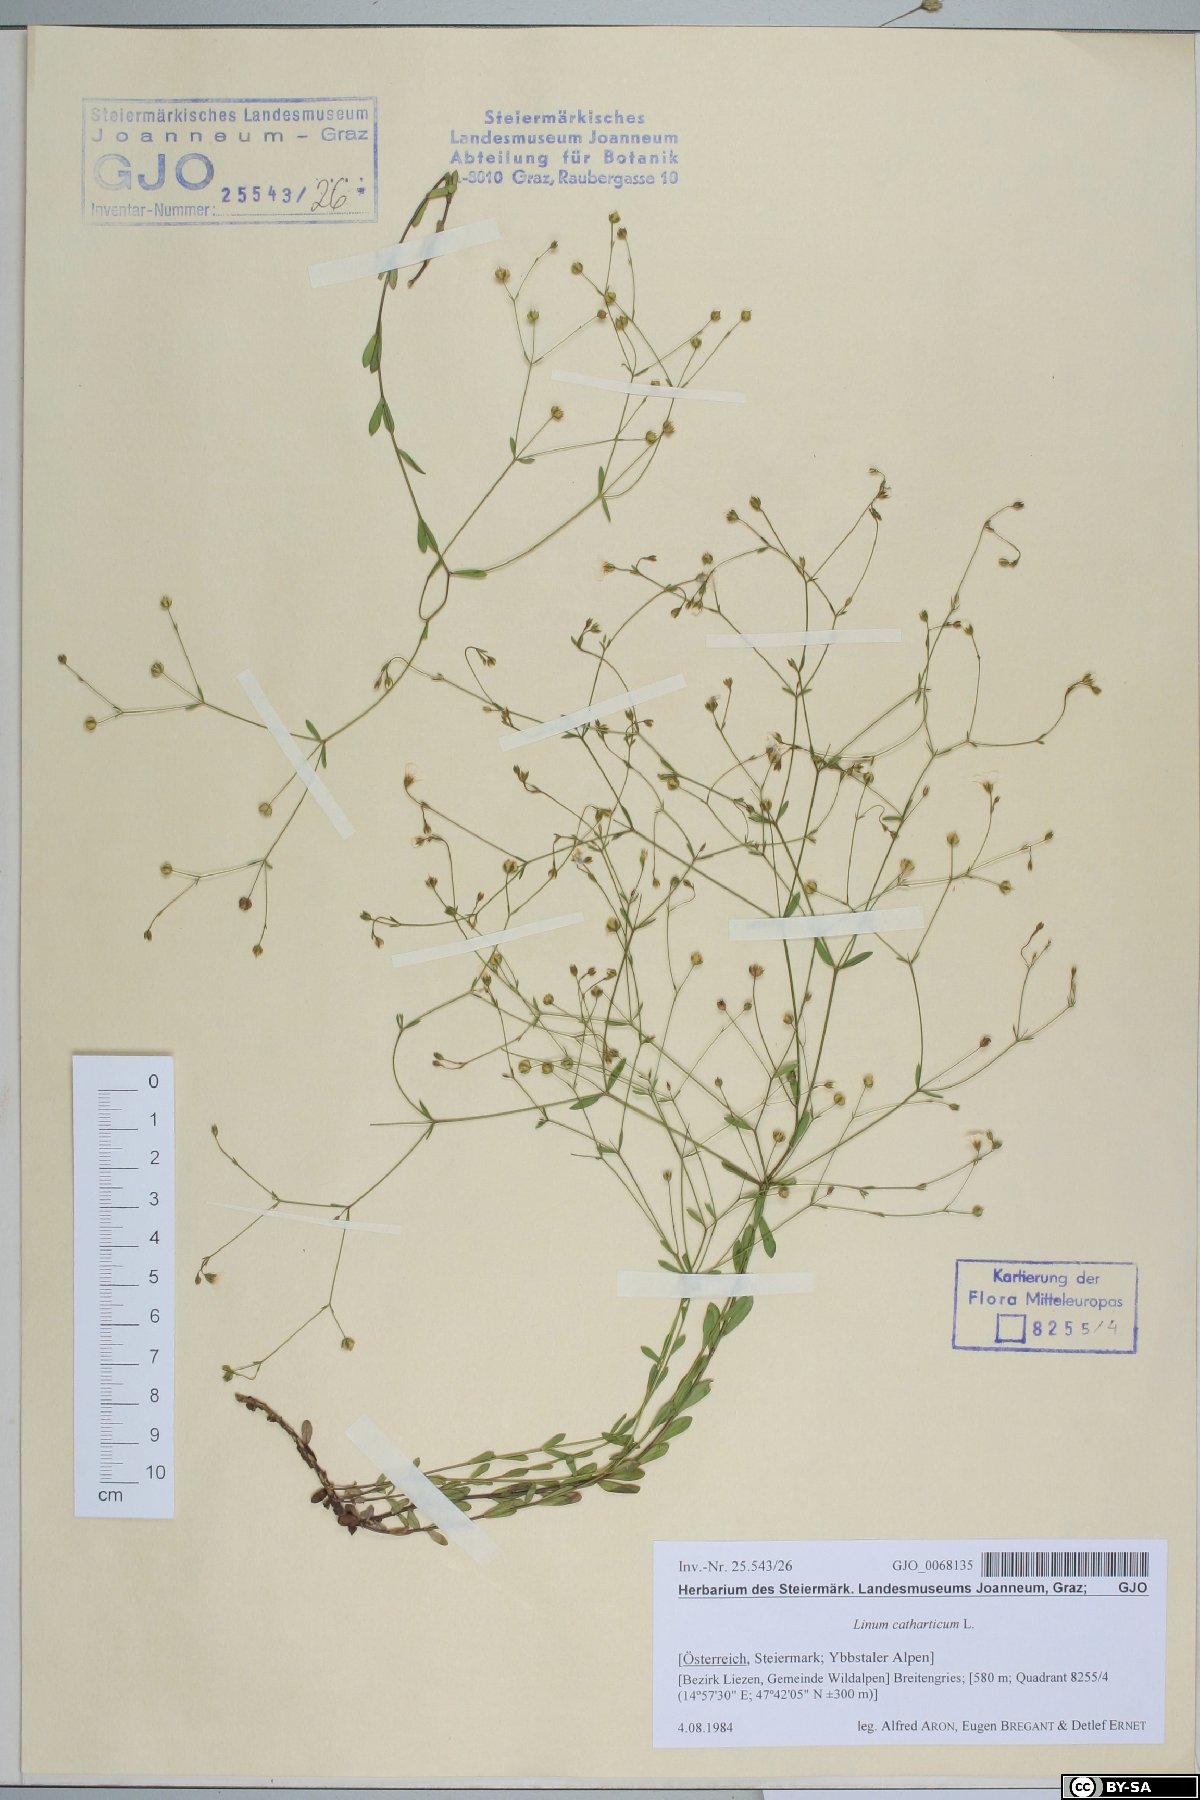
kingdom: Plantae
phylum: Tracheophyta
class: Magnoliopsida
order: Malpighiales
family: Linaceae
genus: Linum
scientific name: Linum catharticum
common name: Fairy flax
